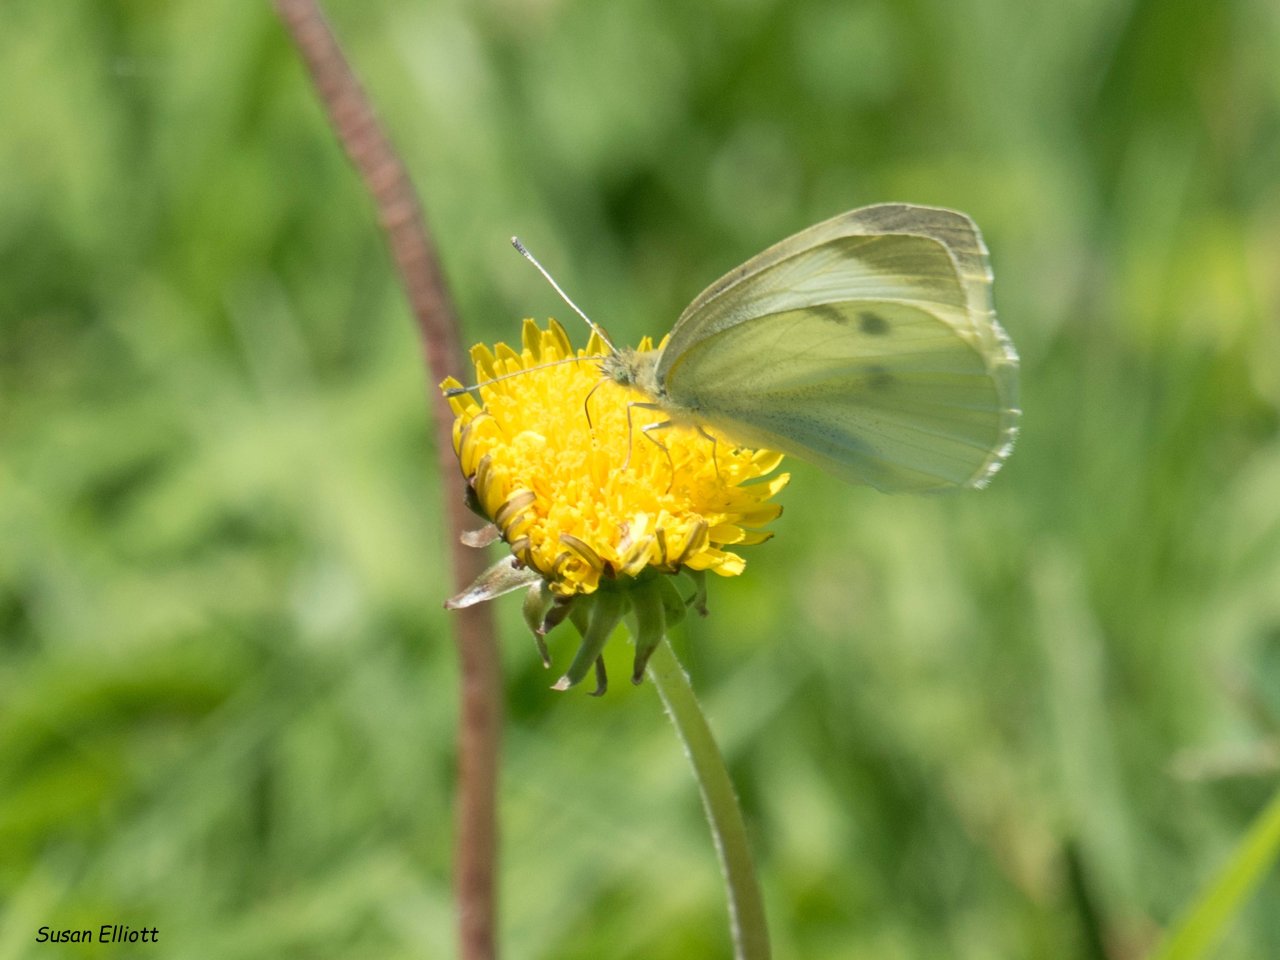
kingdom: Animalia
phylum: Arthropoda
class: Insecta
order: Lepidoptera
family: Pieridae
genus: Pieris
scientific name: Pieris rapae
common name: Cabbage White
